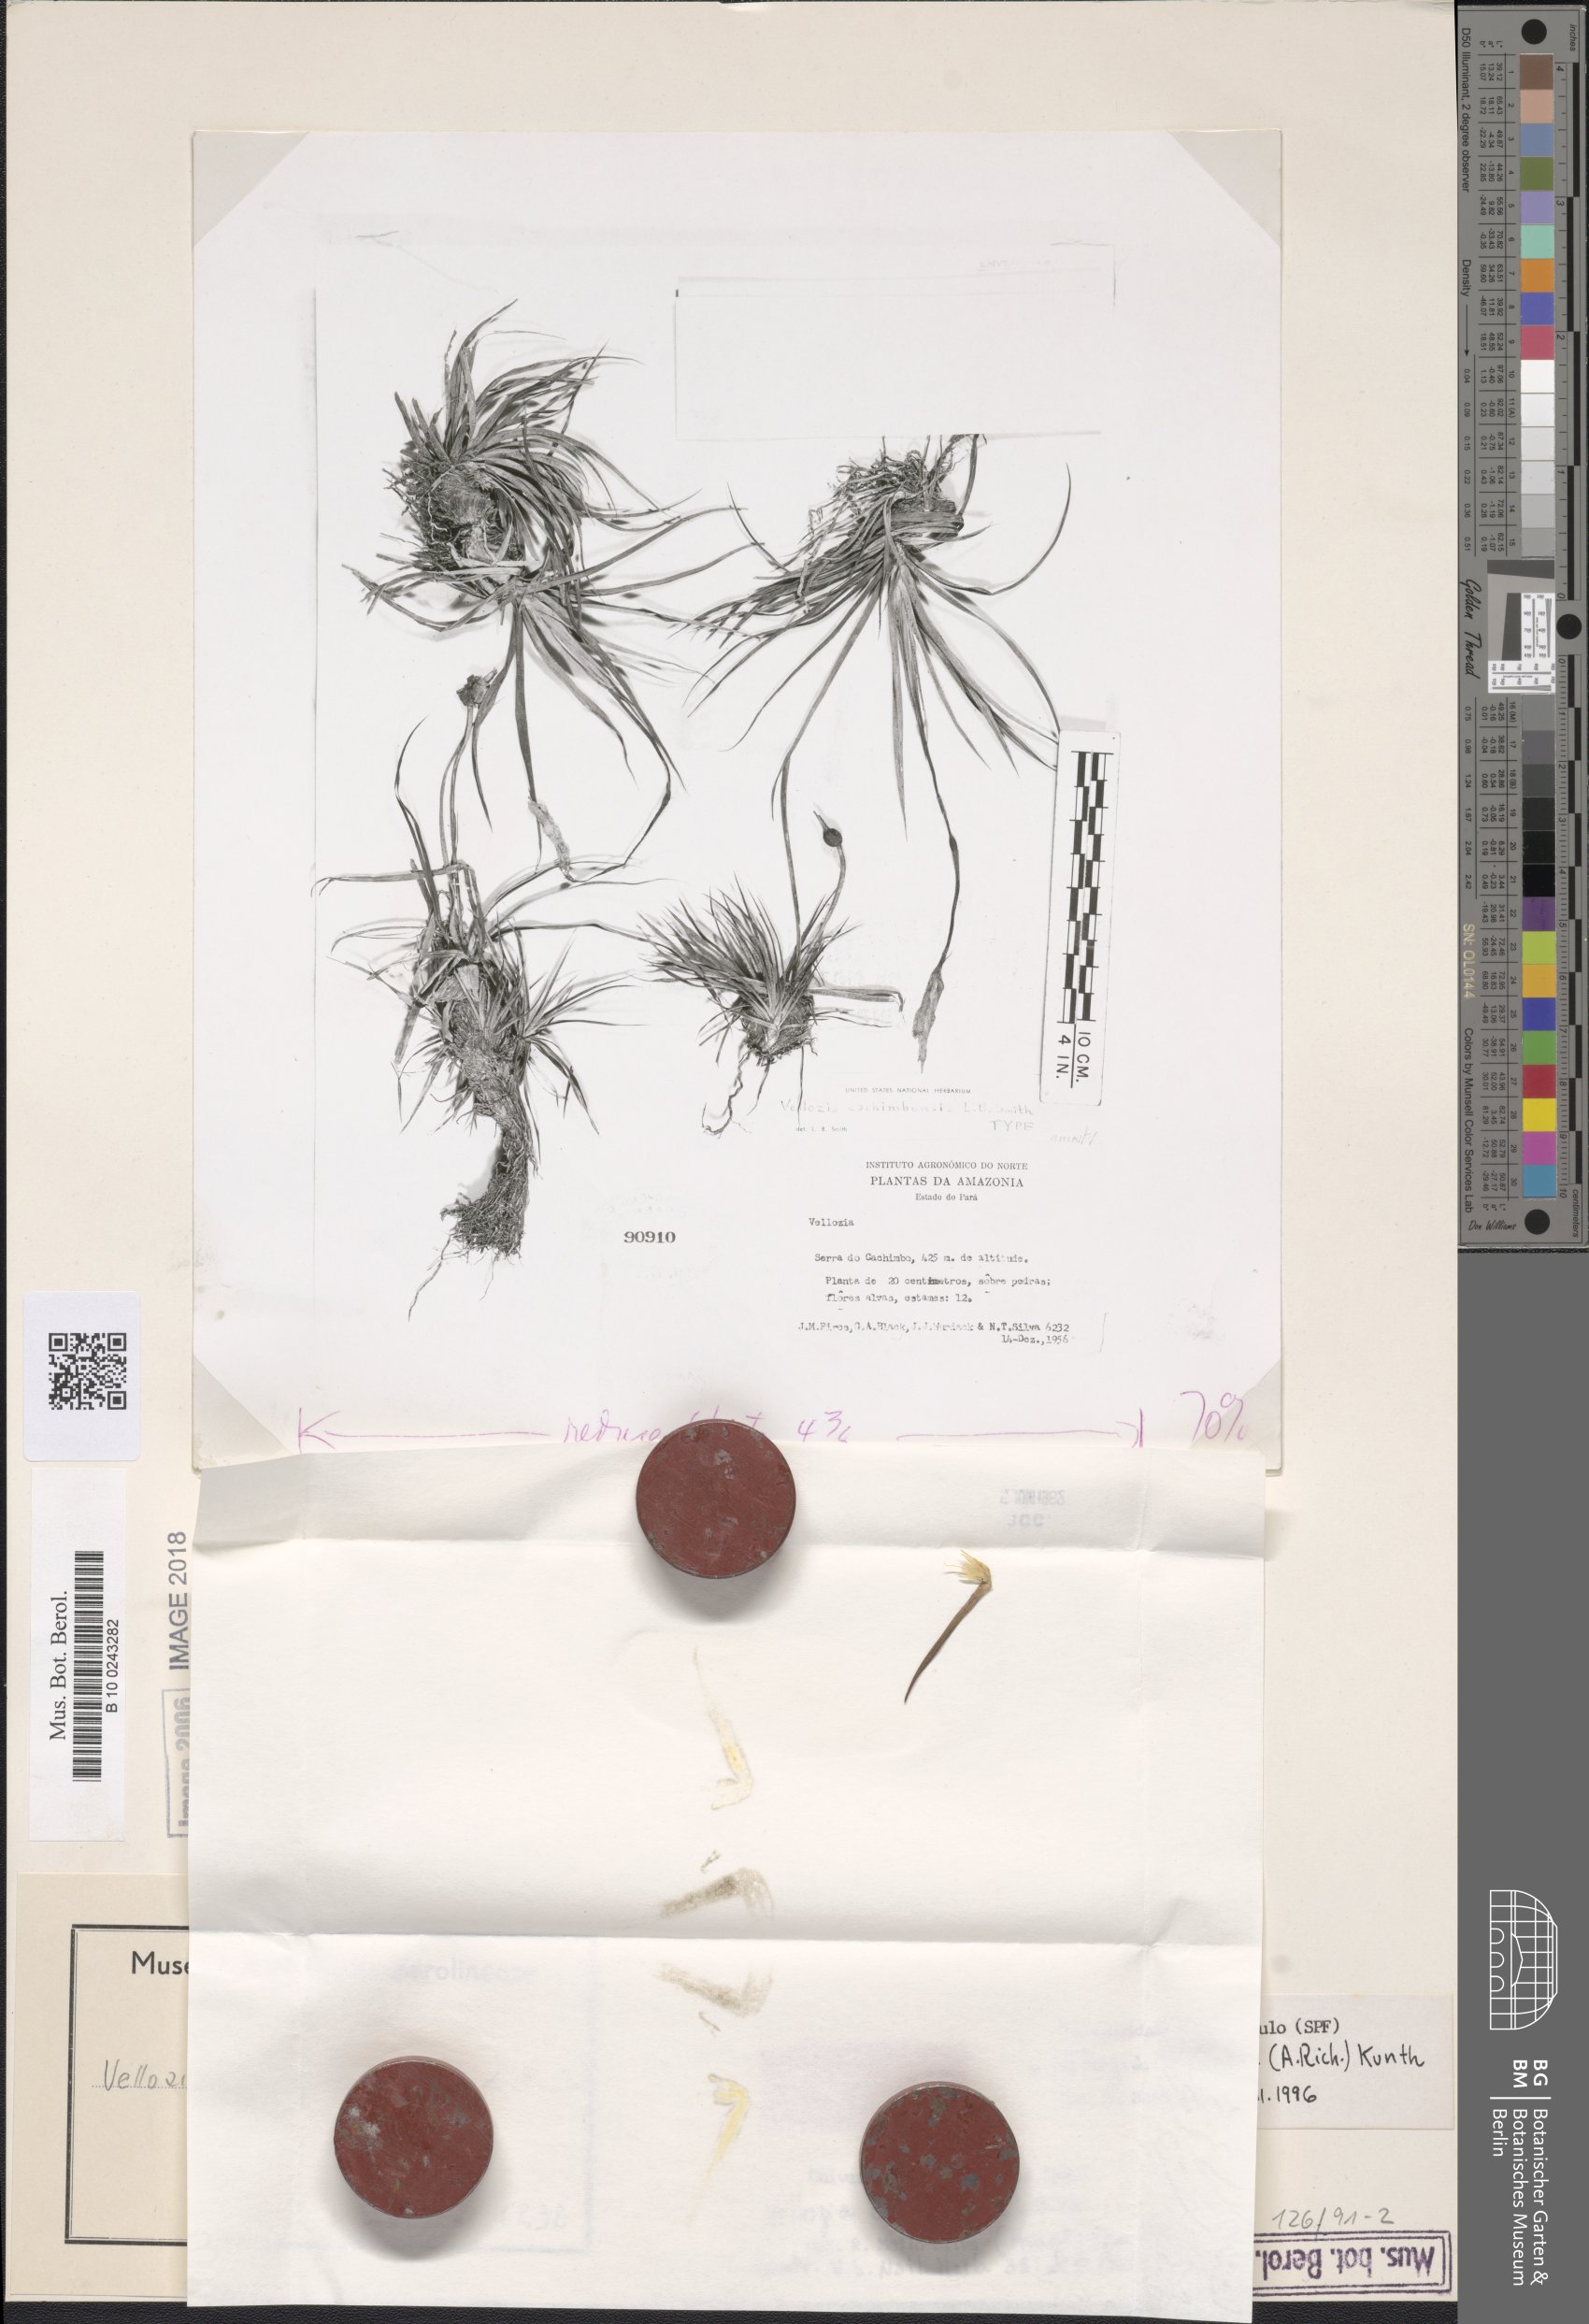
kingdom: Plantae
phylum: Tracheophyta
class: Liliopsida
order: Pandanales
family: Velloziaceae
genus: Vellozia
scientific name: Vellozia tubiflora
